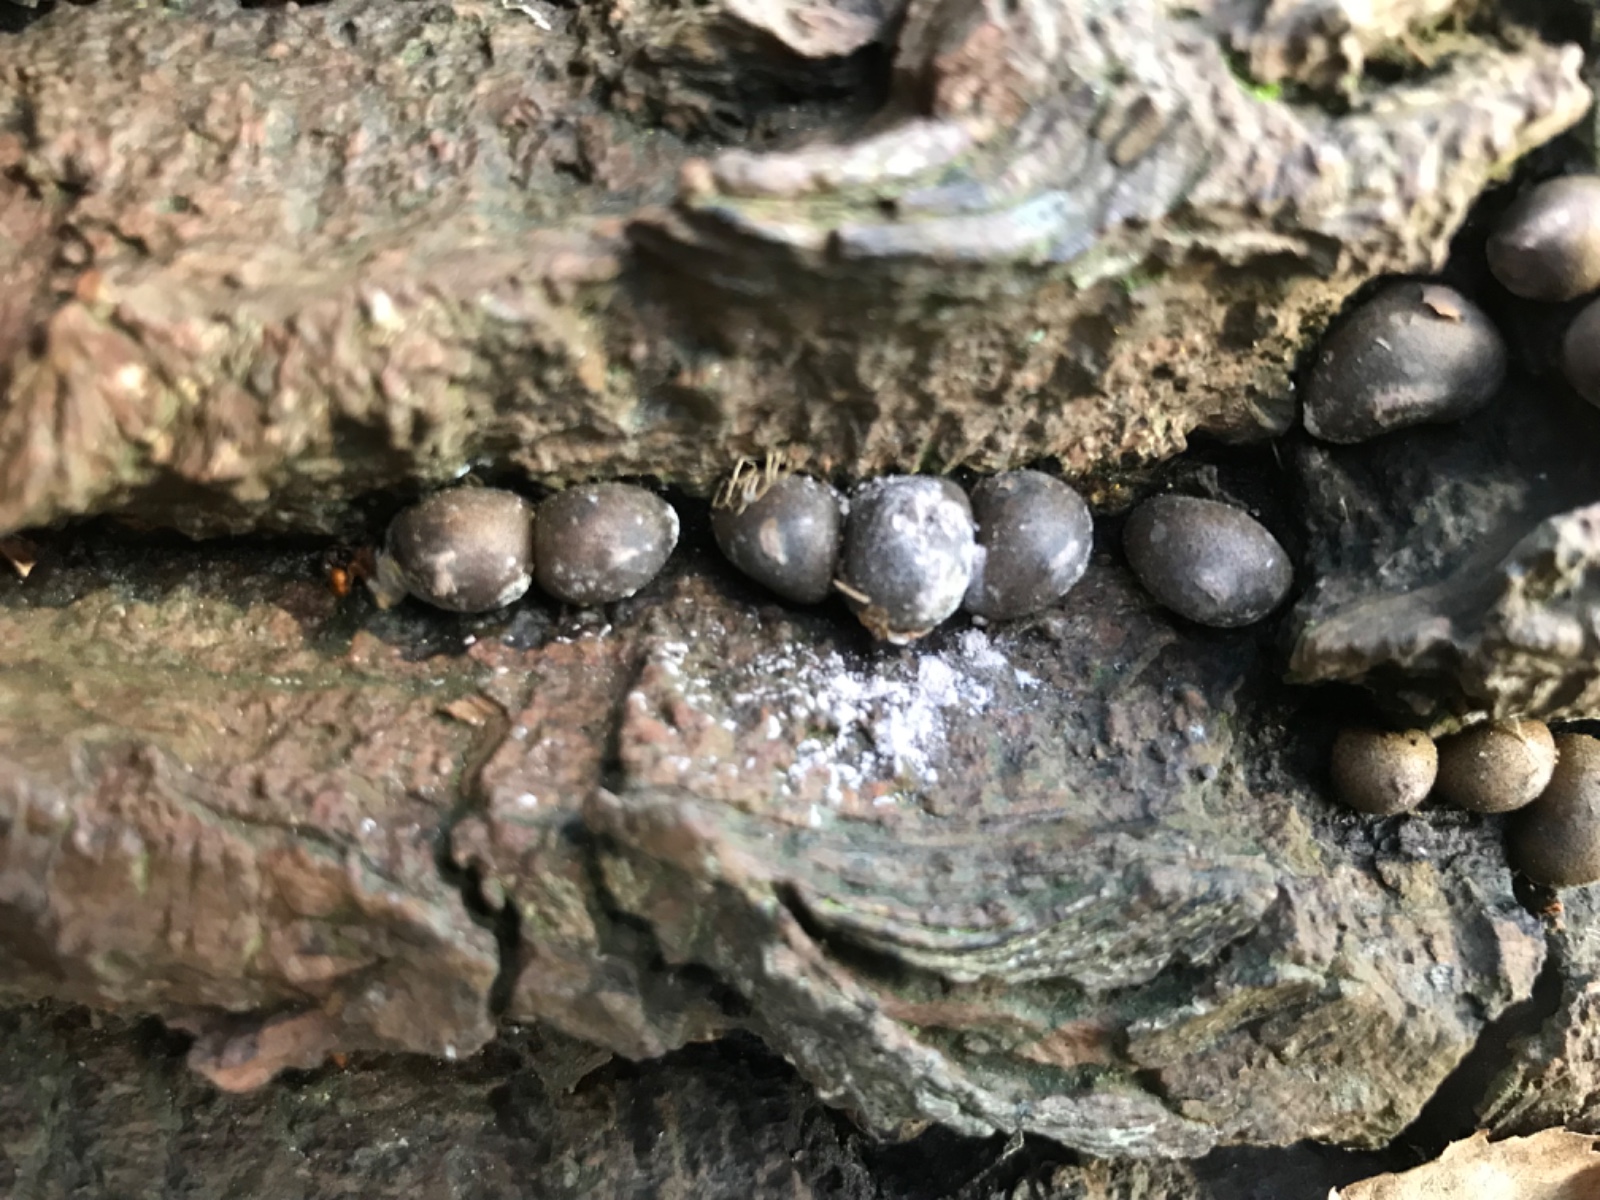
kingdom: Protozoa
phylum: Mycetozoa
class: Myxomycetes
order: Cribrariales
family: Tubiferaceae
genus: Lycogala
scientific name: Lycogala epidendrum
